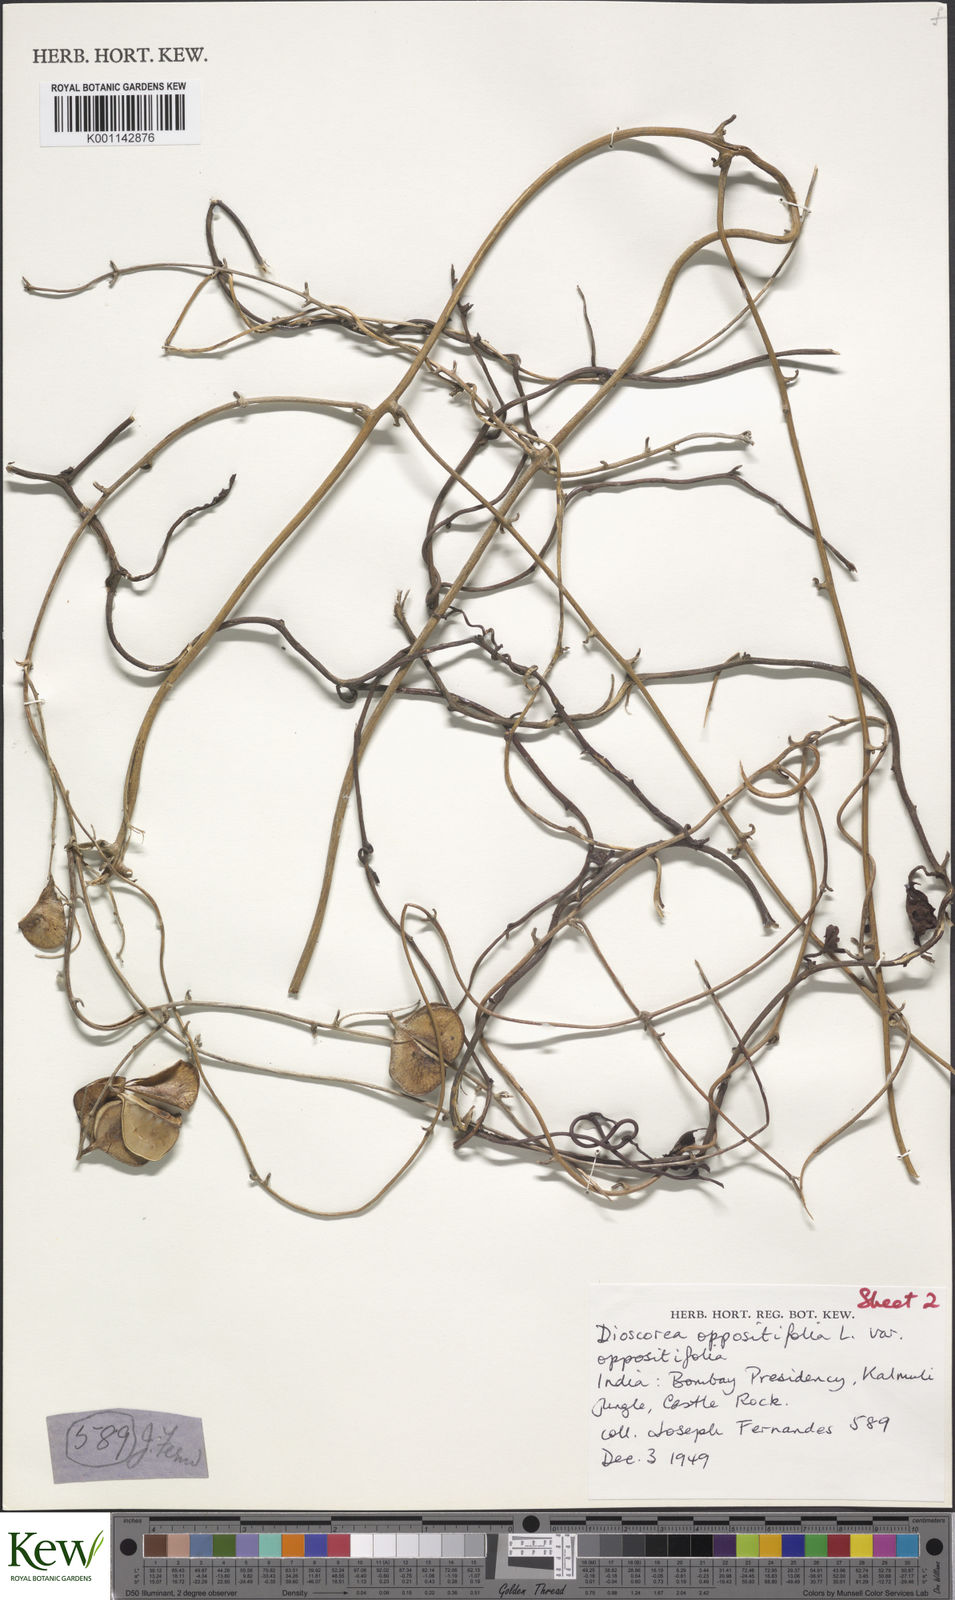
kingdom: Plantae
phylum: Tracheophyta
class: Liliopsida
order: Dioscoreales
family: Dioscoreaceae
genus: Dioscorea
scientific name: Dioscorea oppositifolia
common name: Chinese yam
